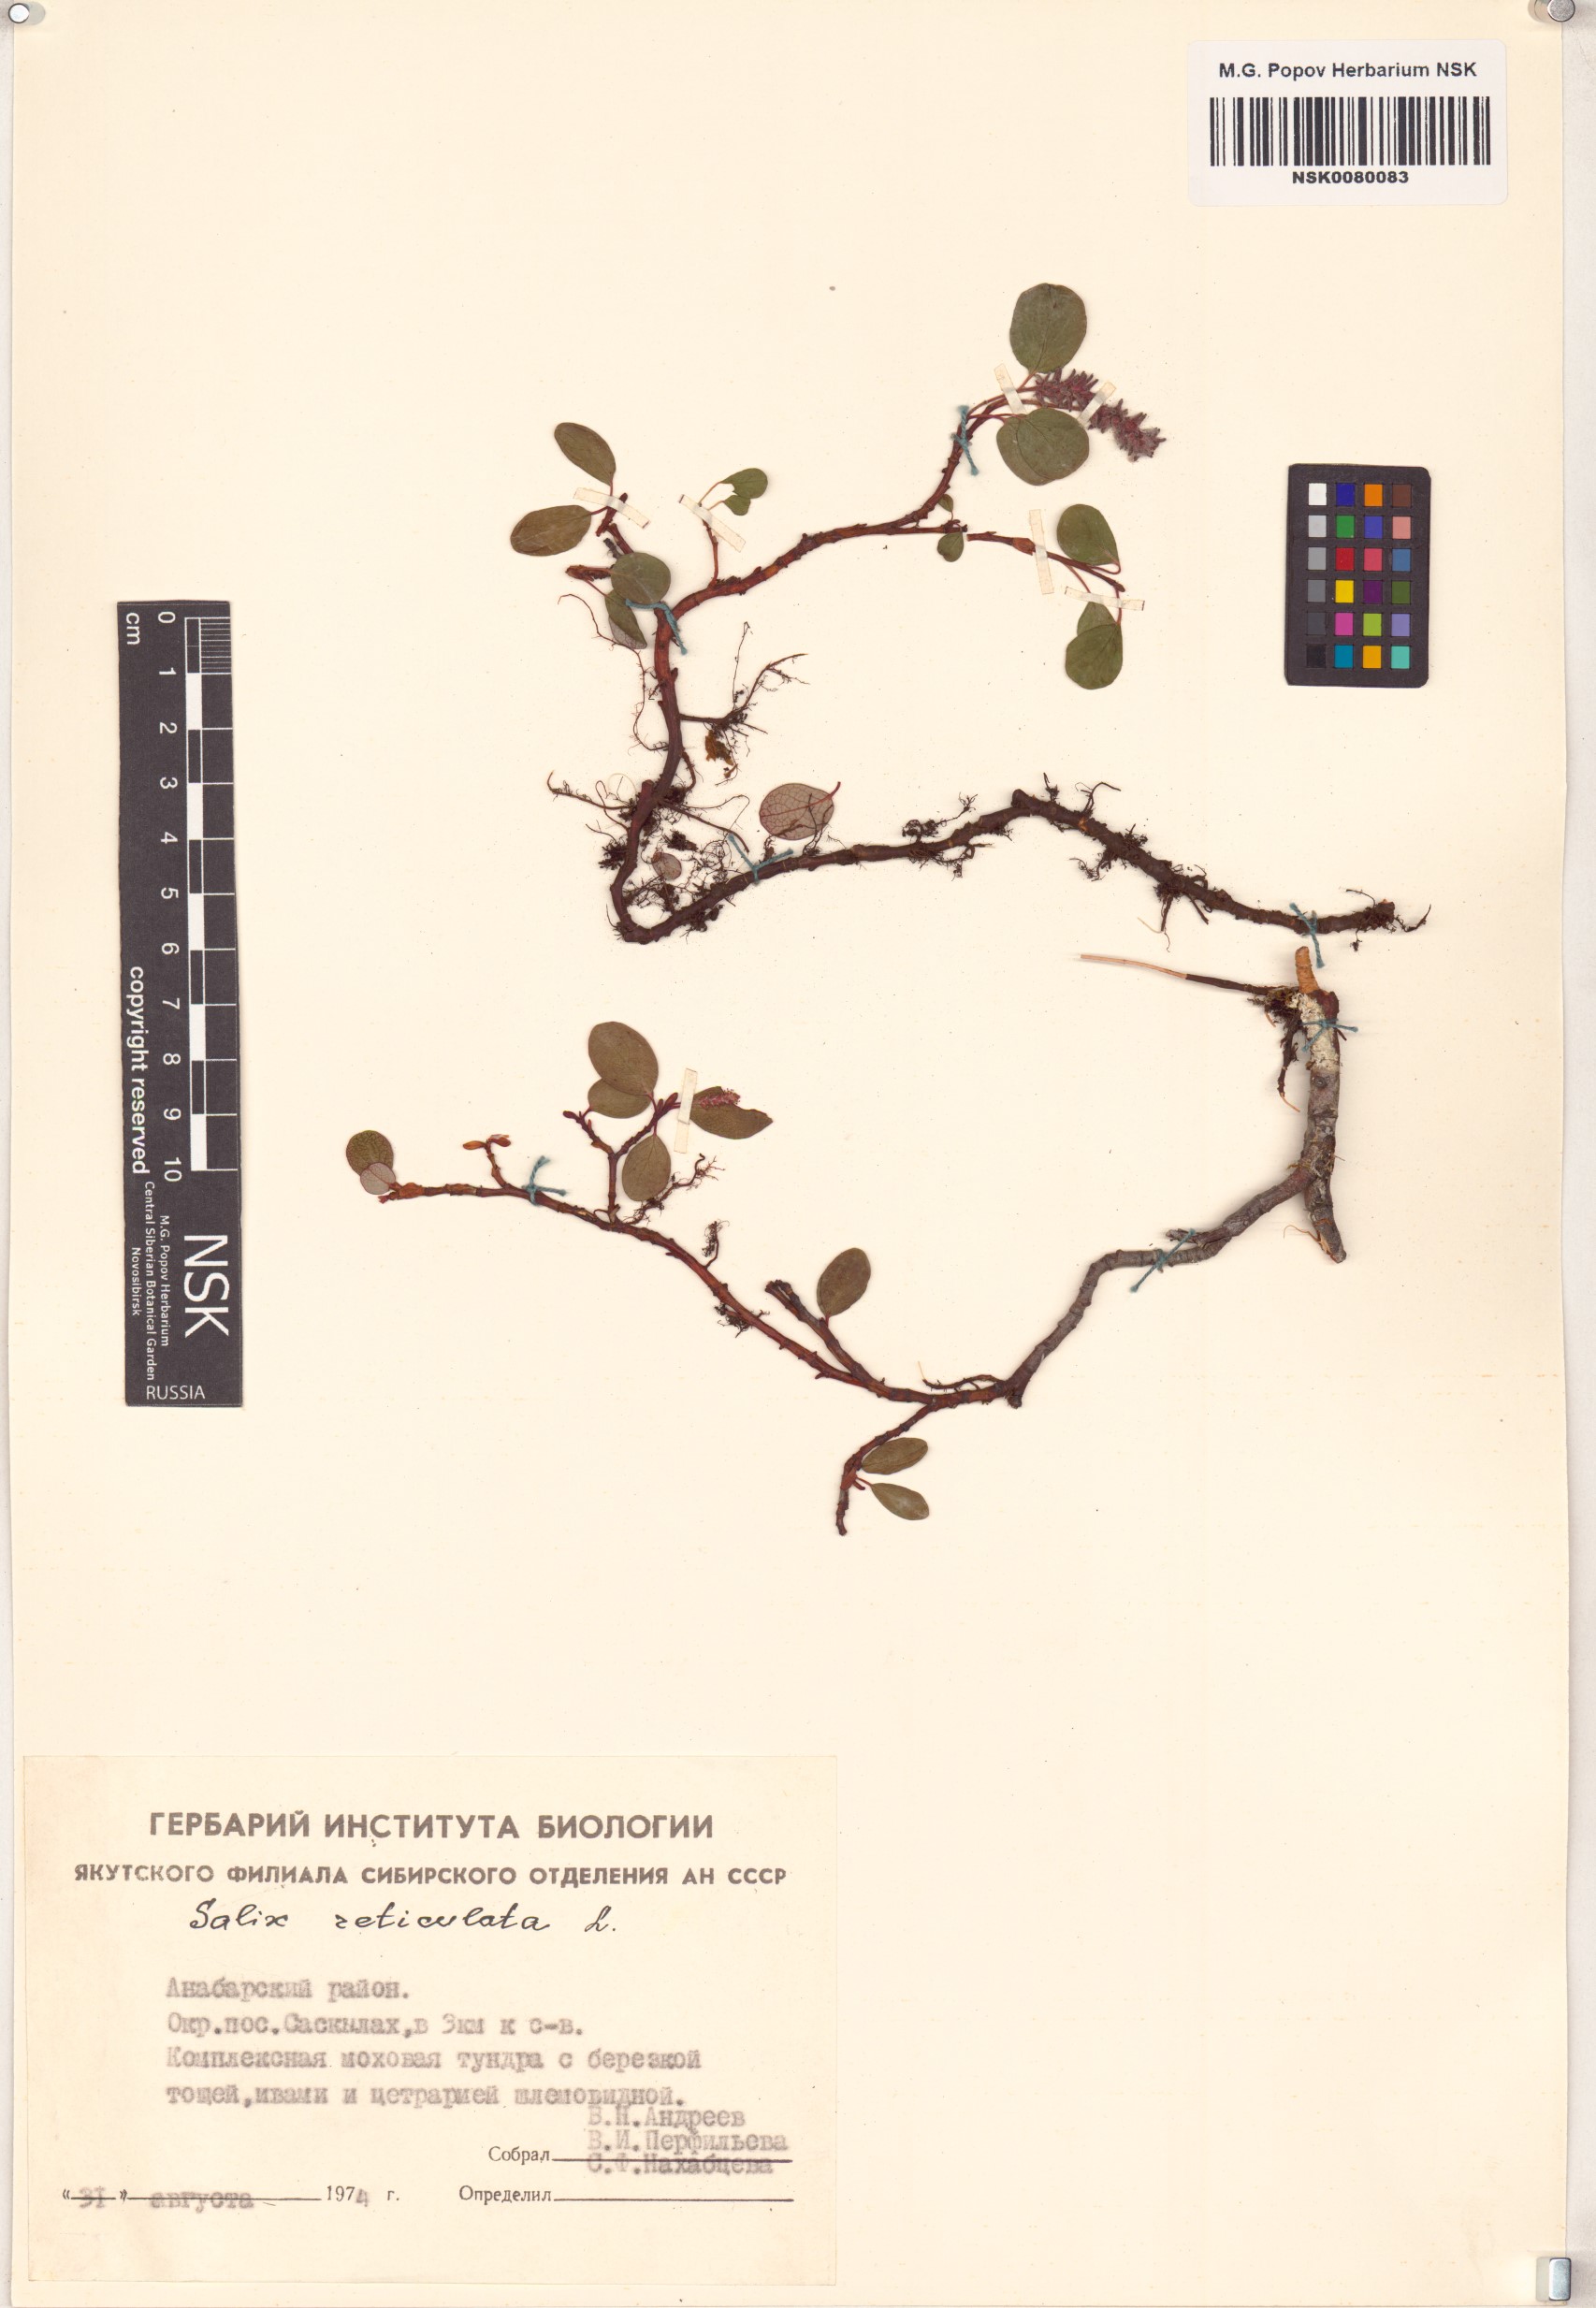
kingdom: Plantae
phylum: Tracheophyta
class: Magnoliopsida
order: Malpighiales
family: Salicaceae
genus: Salix
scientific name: Salix reticulata
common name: Net-leaved willow
